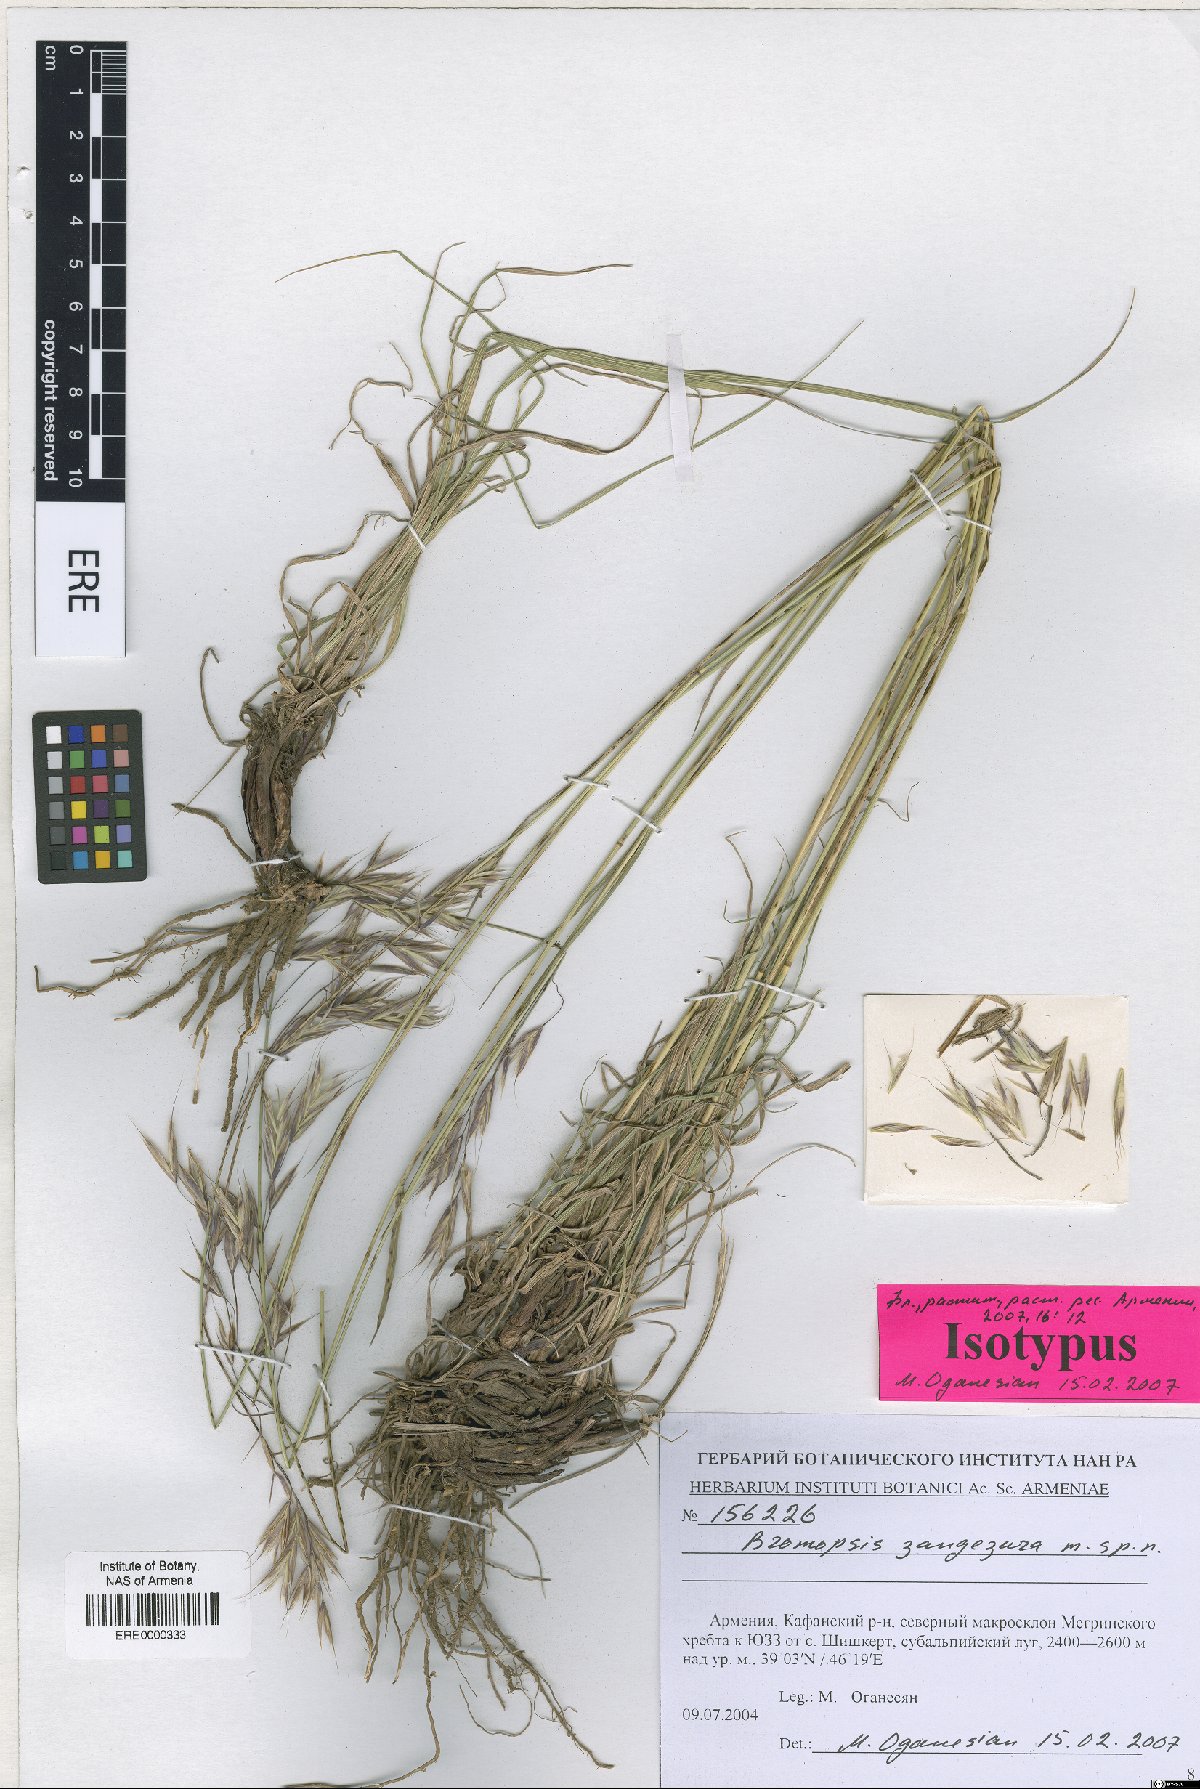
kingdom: Plantae
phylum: Tracheophyta
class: Liliopsida
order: Poales
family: Poaceae
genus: Bromus
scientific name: Bromus erectus
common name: Erect brome
